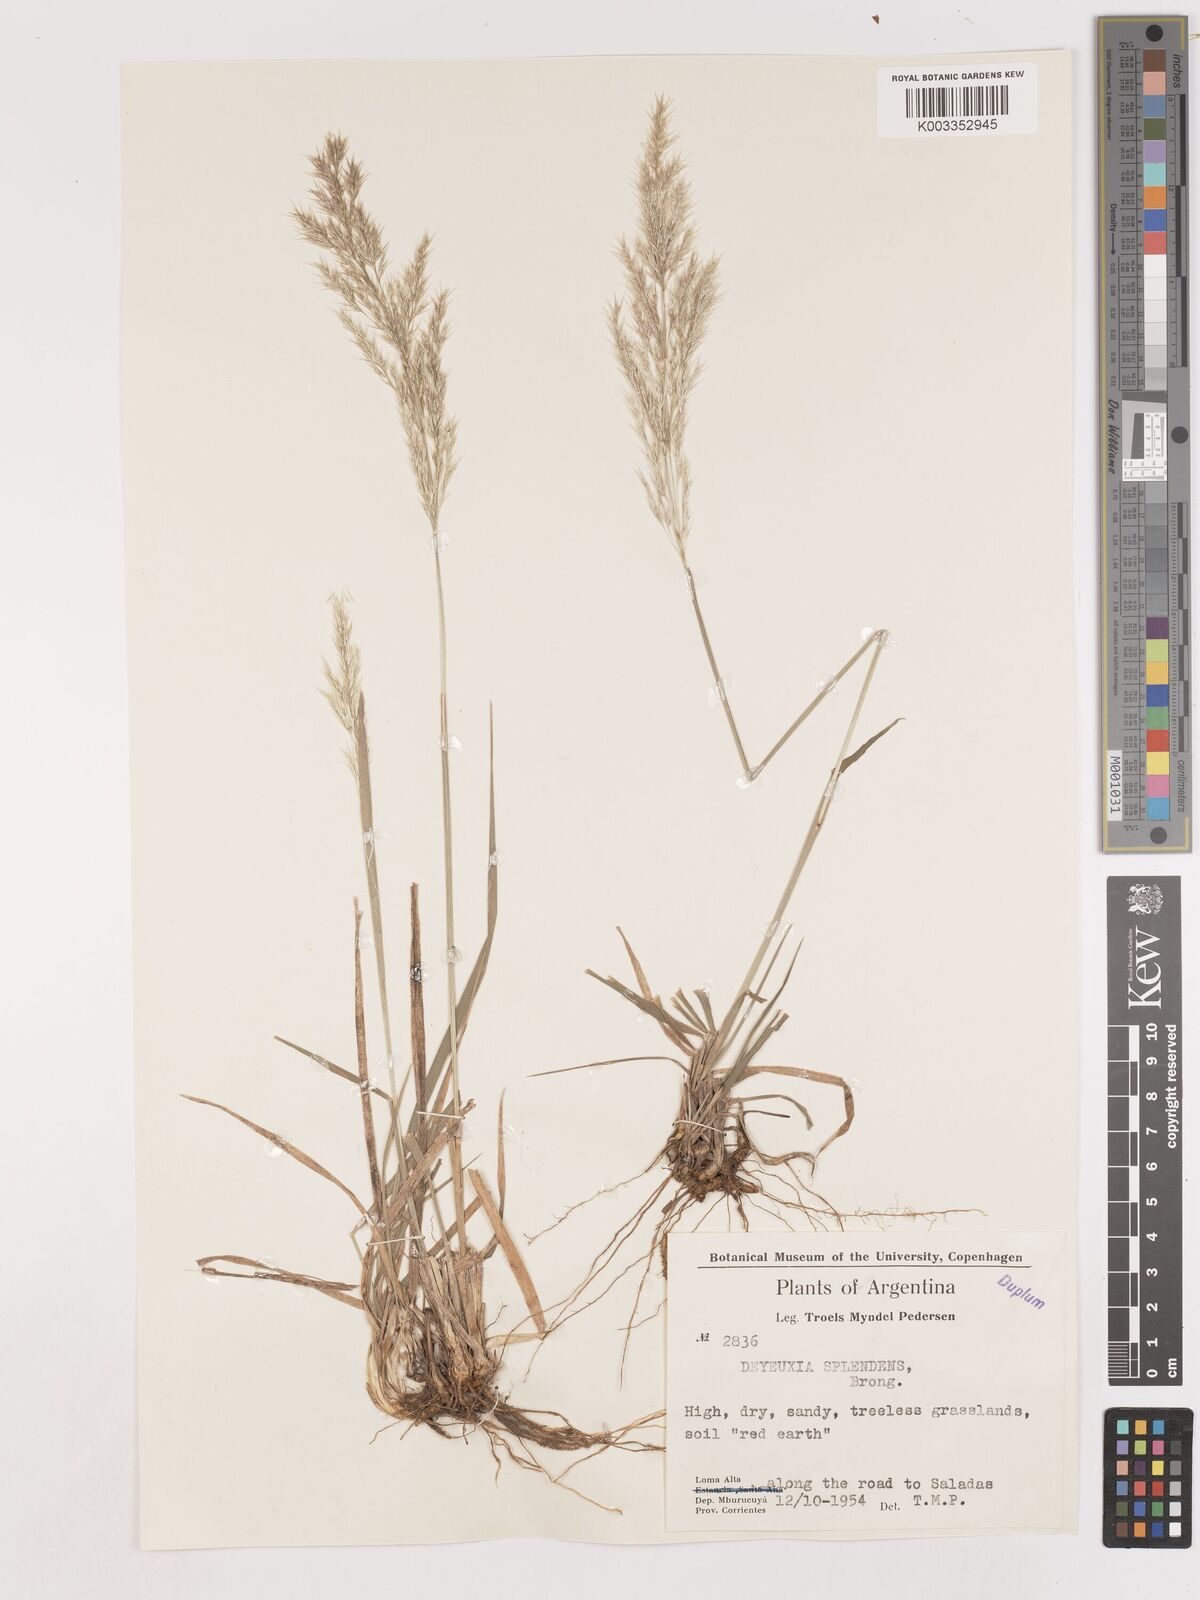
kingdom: Plantae
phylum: Tracheophyta
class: Liliopsida
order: Poales
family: Poaceae
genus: Cinnagrostis
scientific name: Cinnagrostis viridiflavescens
